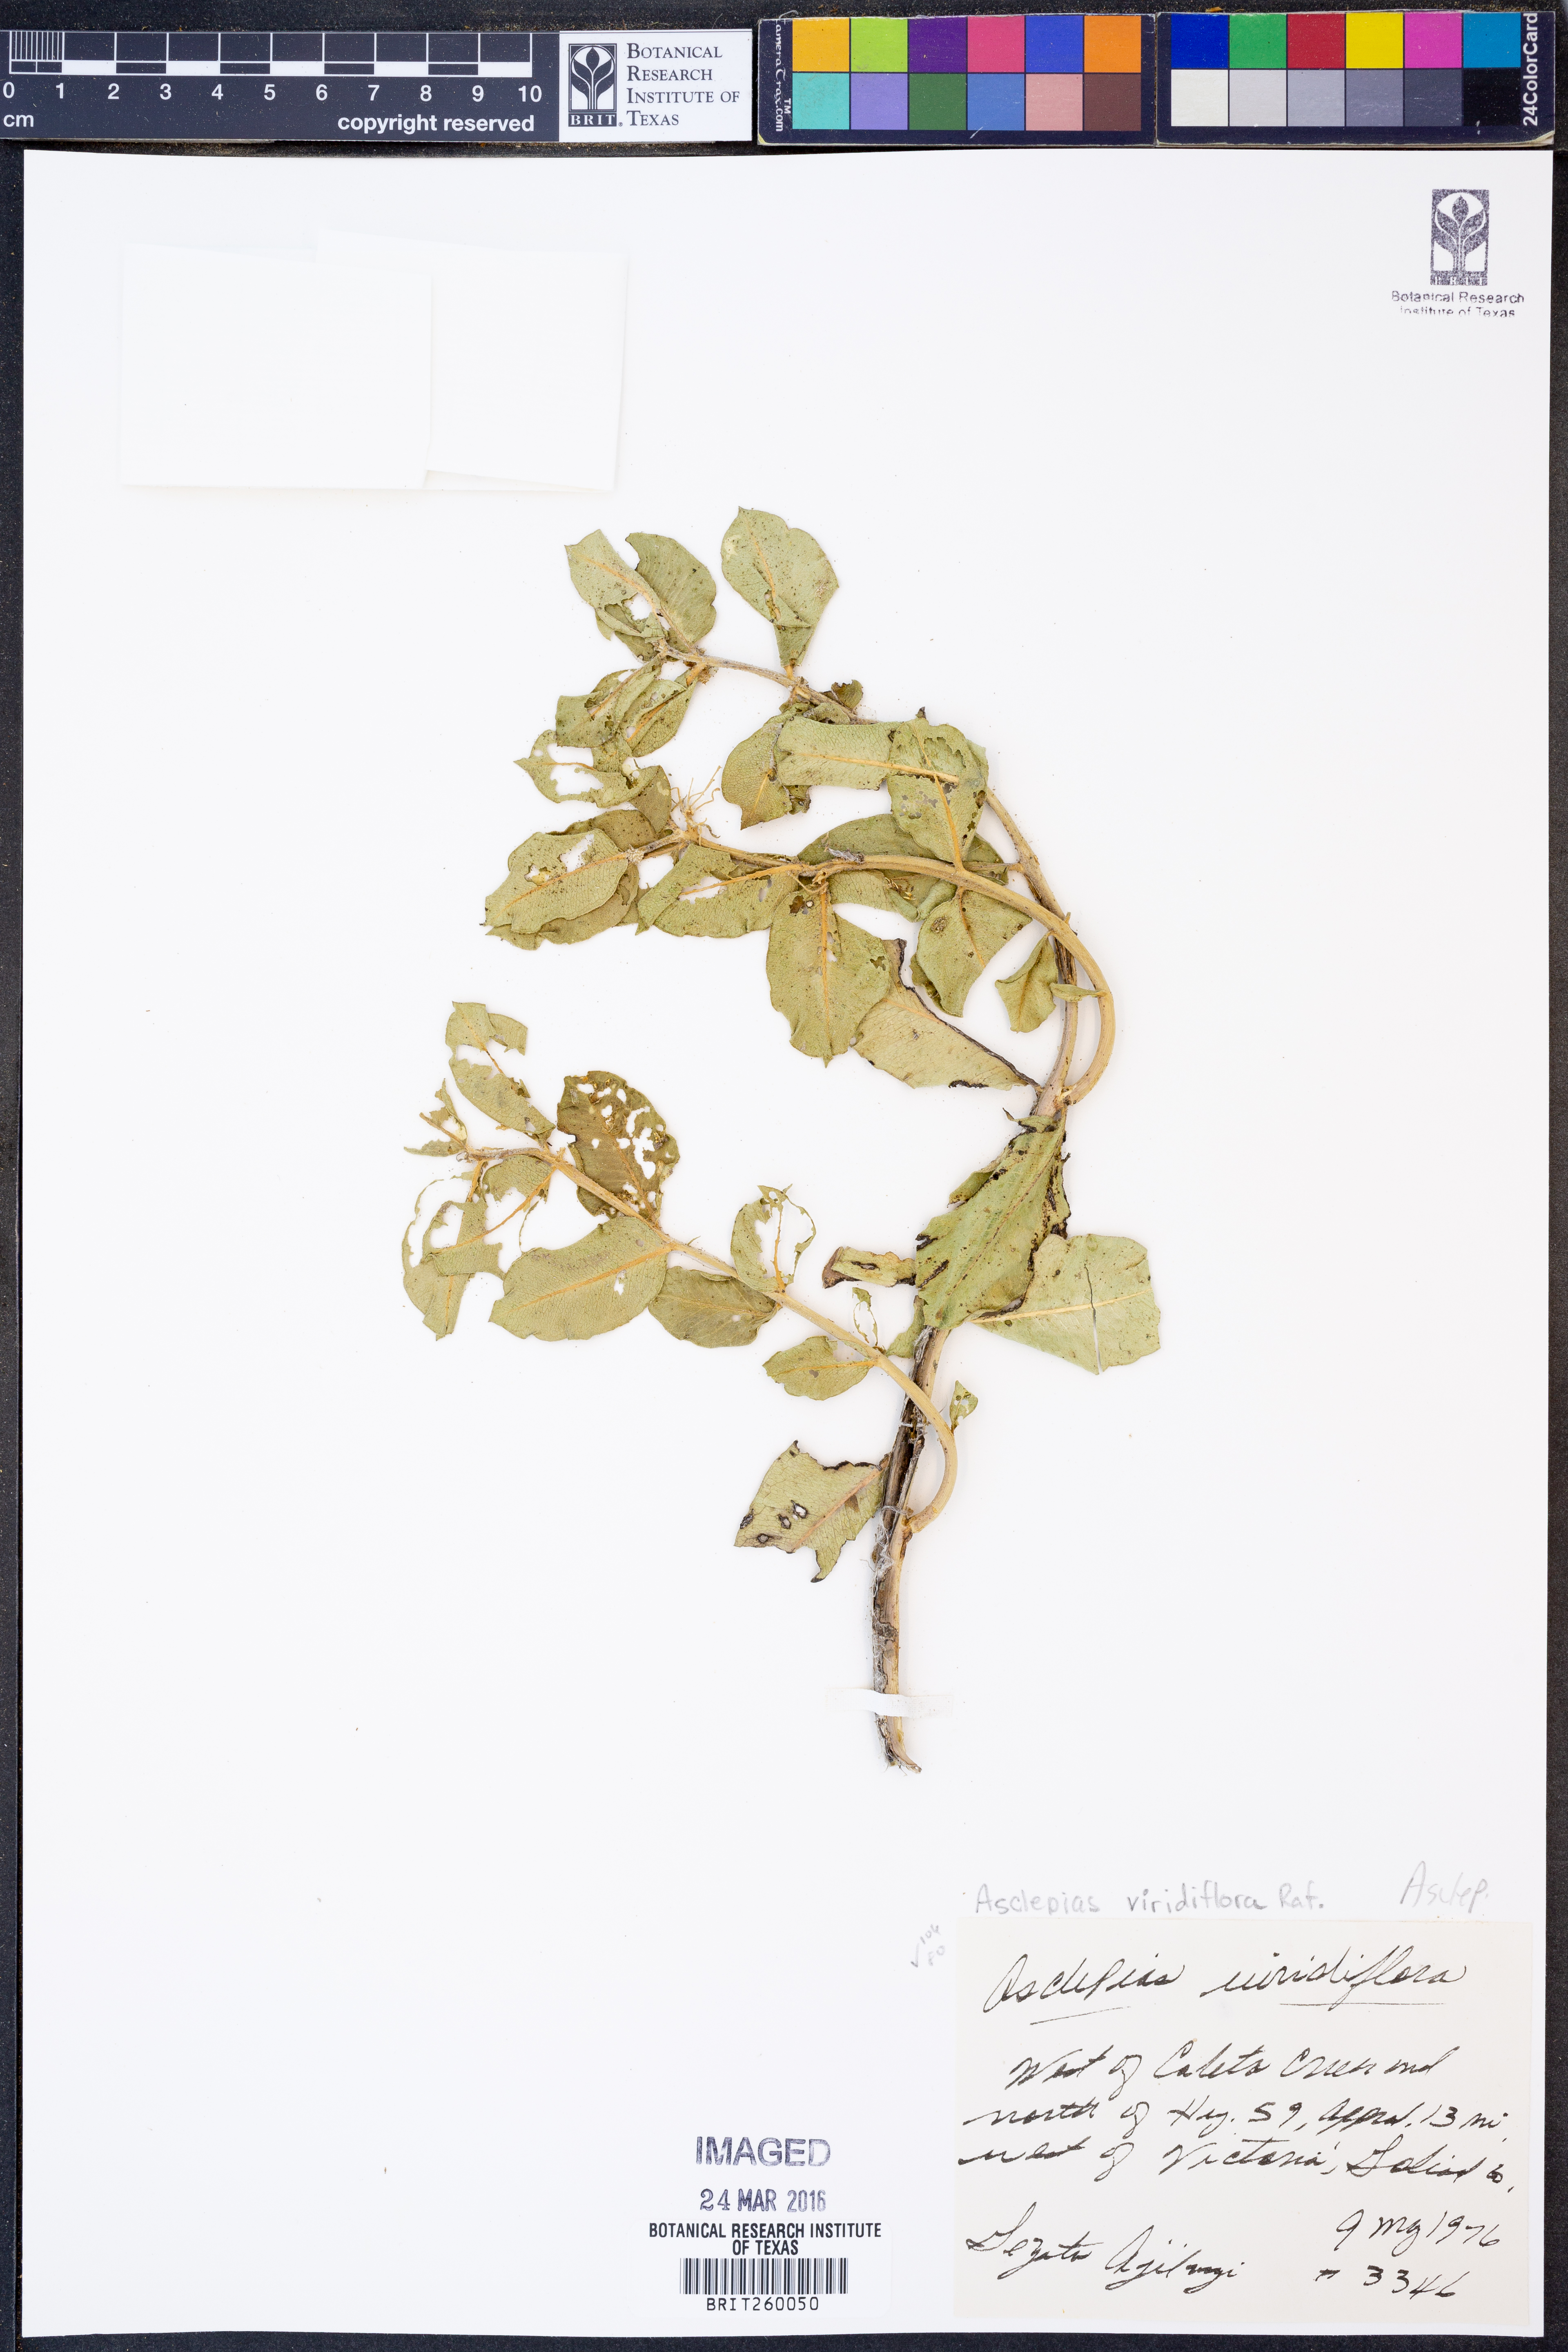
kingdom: Plantae
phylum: Tracheophyta
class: Magnoliopsida
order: Gentianales
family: Apocynaceae
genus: Asclepias
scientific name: Asclepias viridiflora
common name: Green comet milkweed
